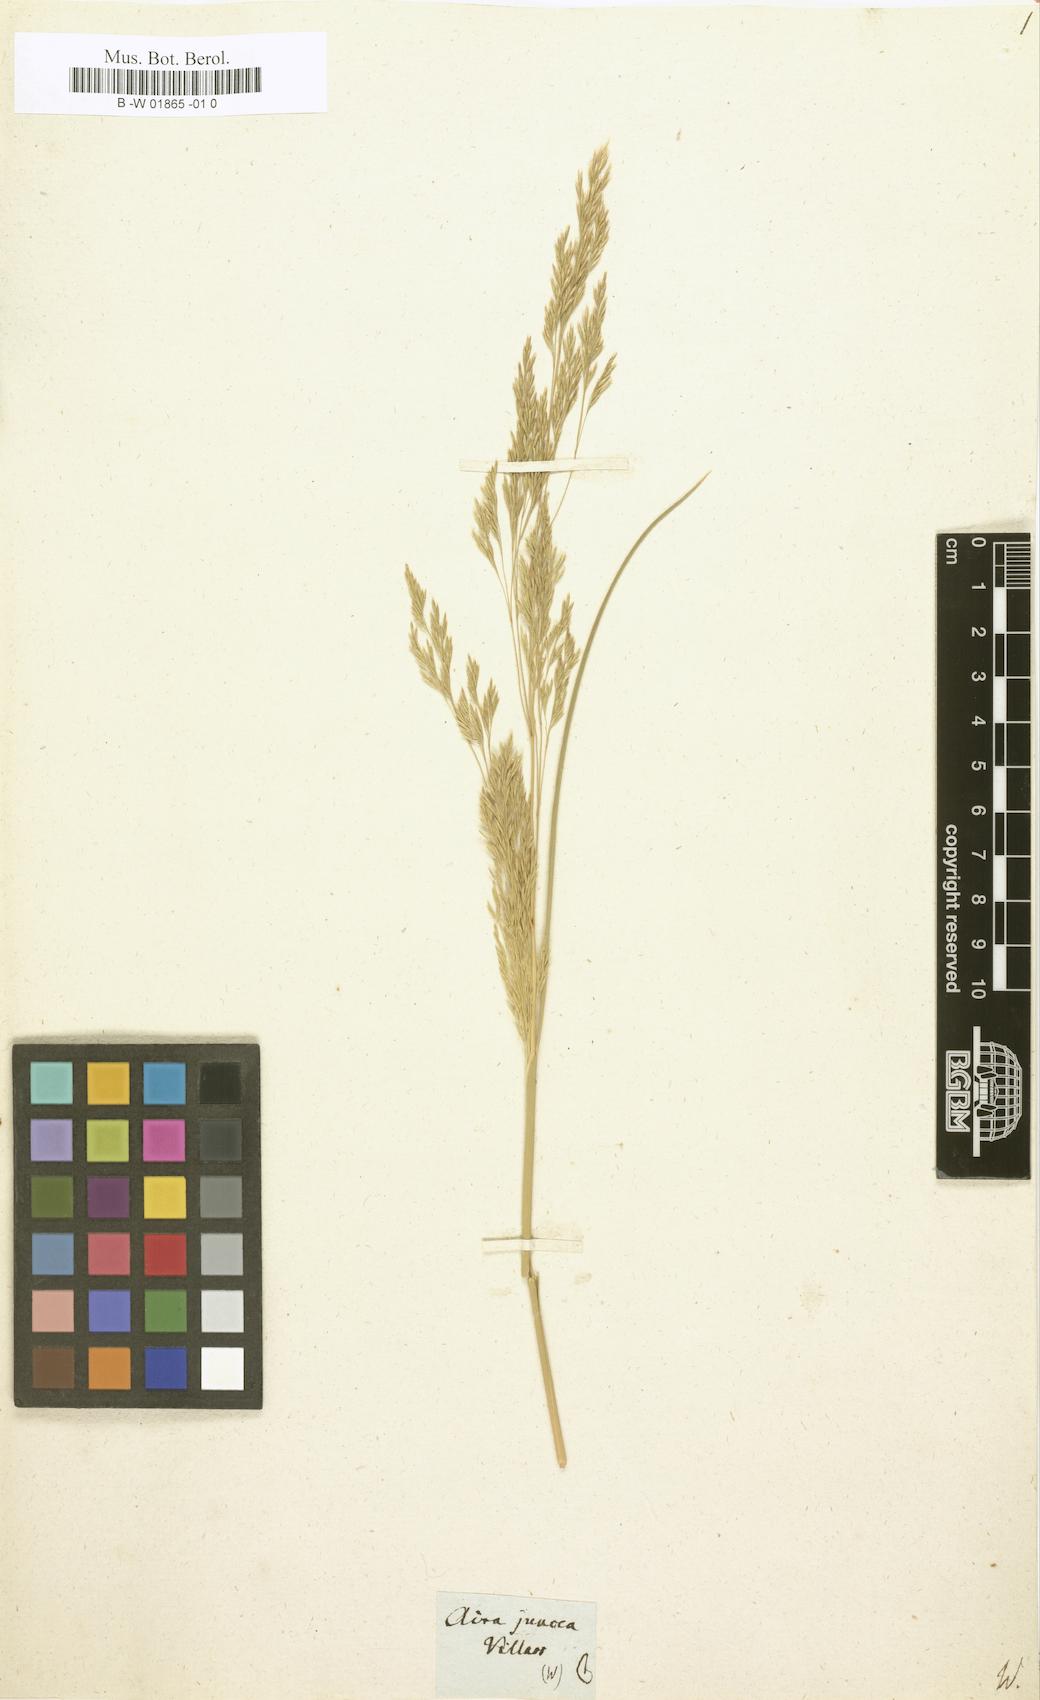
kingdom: Plantae
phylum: Tracheophyta
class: Liliopsida
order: Poales
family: Poaceae
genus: Deschampsia
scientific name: Deschampsia media
